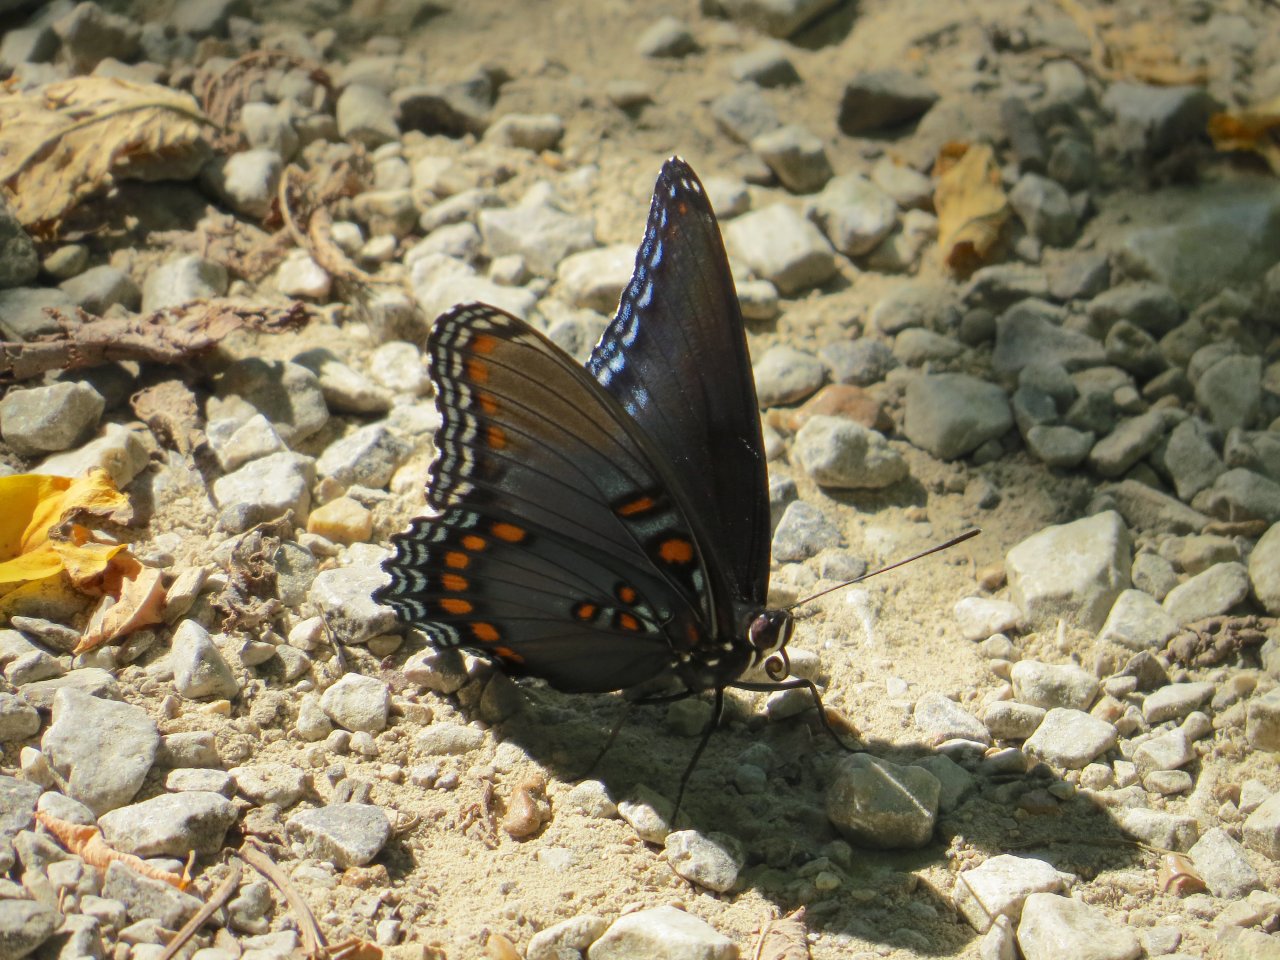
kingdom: Animalia
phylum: Arthropoda
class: Insecta
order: Lepidoptera
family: Nymphalidae
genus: Limenitis
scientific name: Limenitis astyanax
